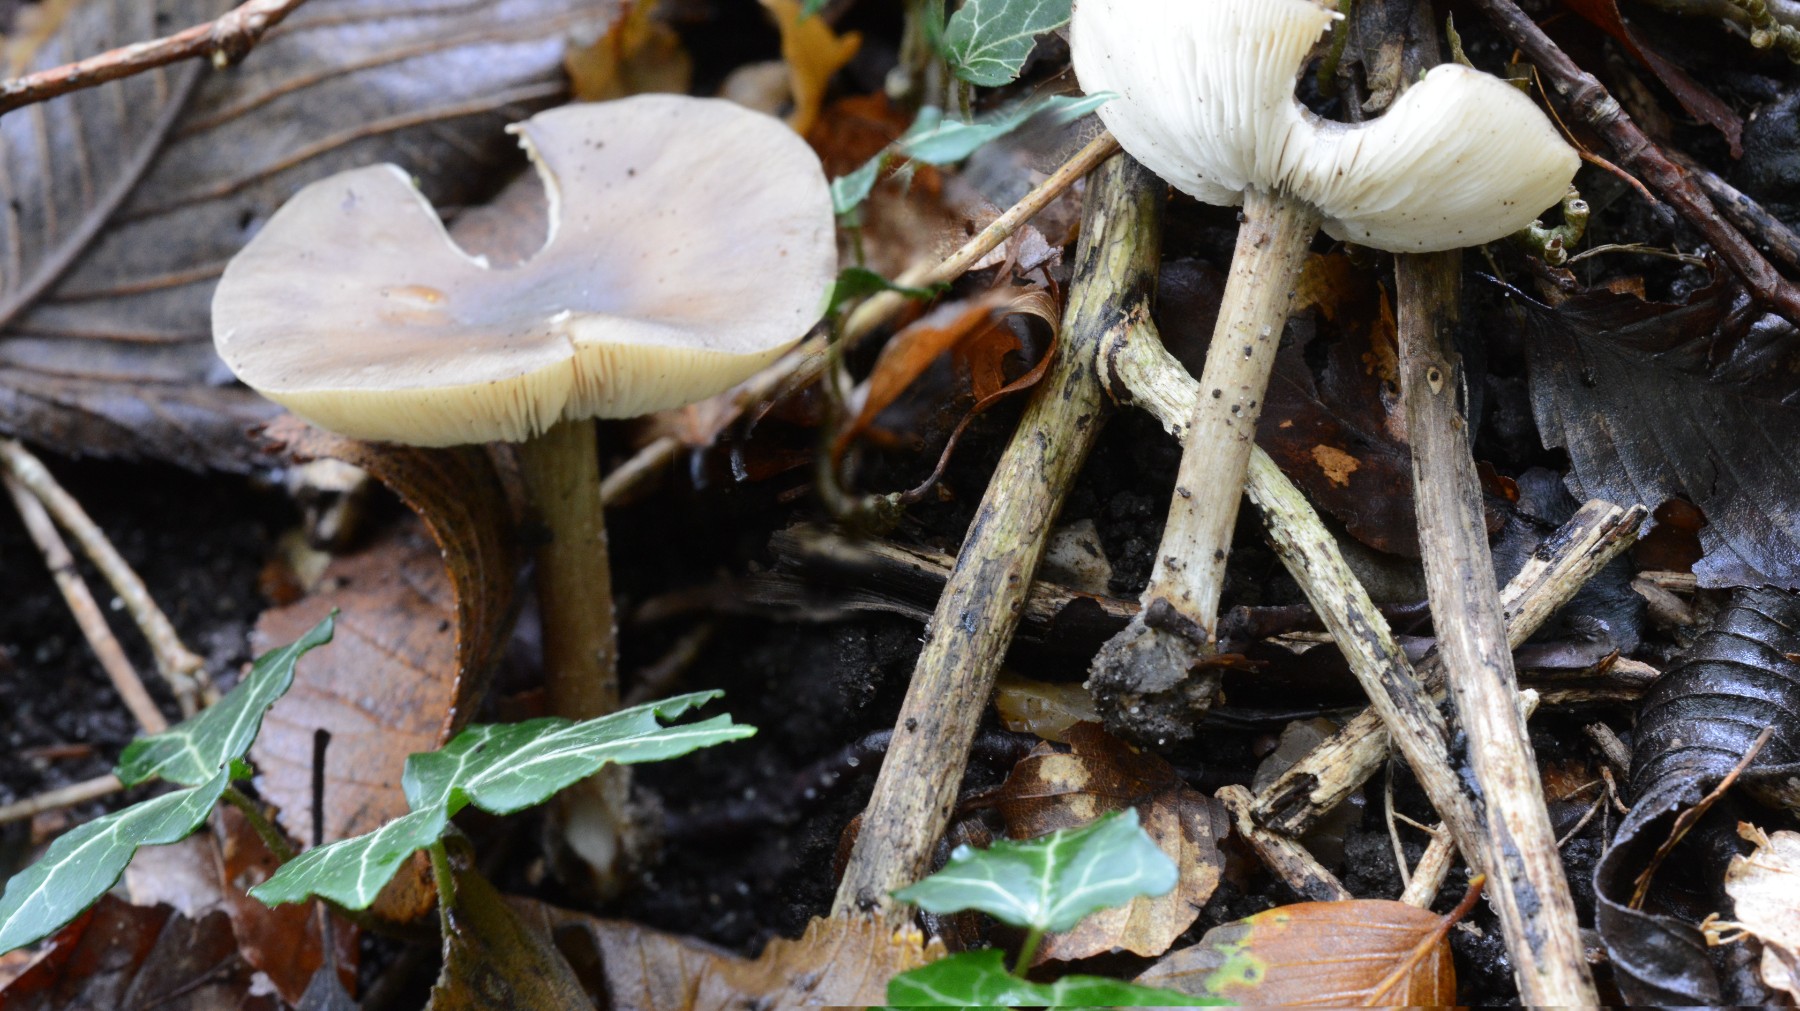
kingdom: Fungi
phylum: Basidiomycota
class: Agaricomycetes
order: Agaricales
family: Tricholomataceae
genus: Melanoleuca
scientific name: Melanoleuca
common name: munkehat
